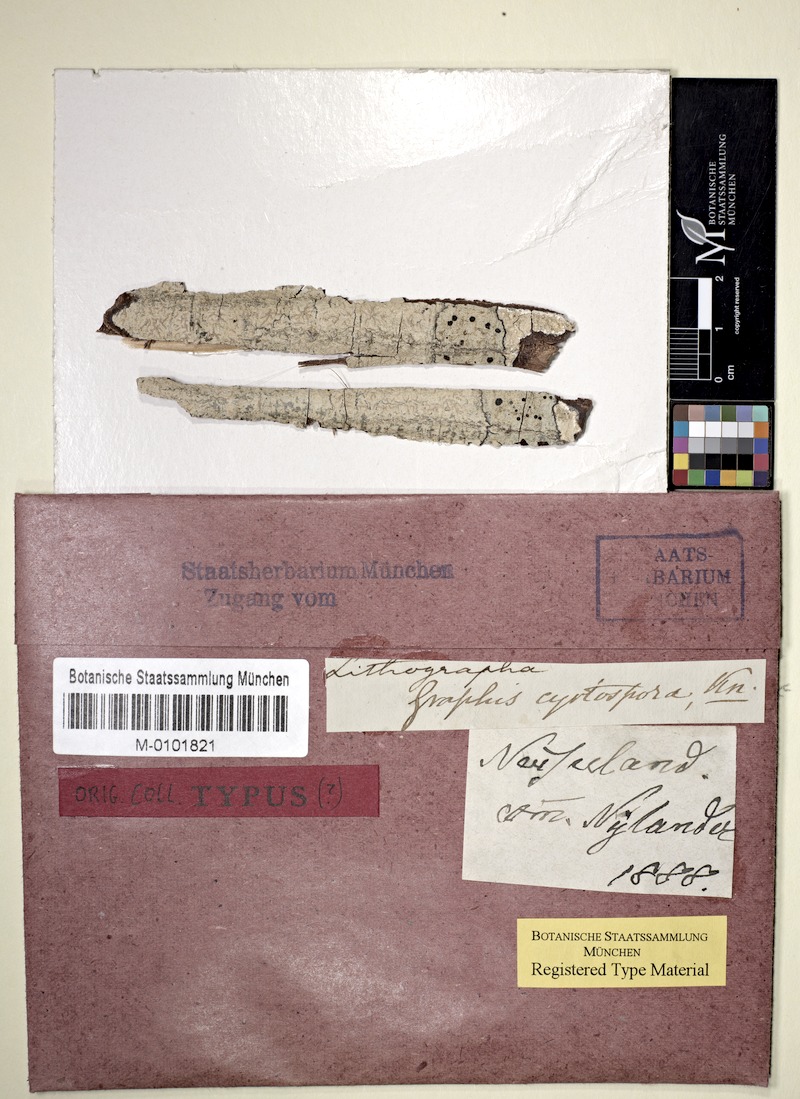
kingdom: Fungi
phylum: Ascomycota
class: Lecanoromycetes
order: Baeomycetales
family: Xylographaceae
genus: Lithographa
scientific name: Lithographa
